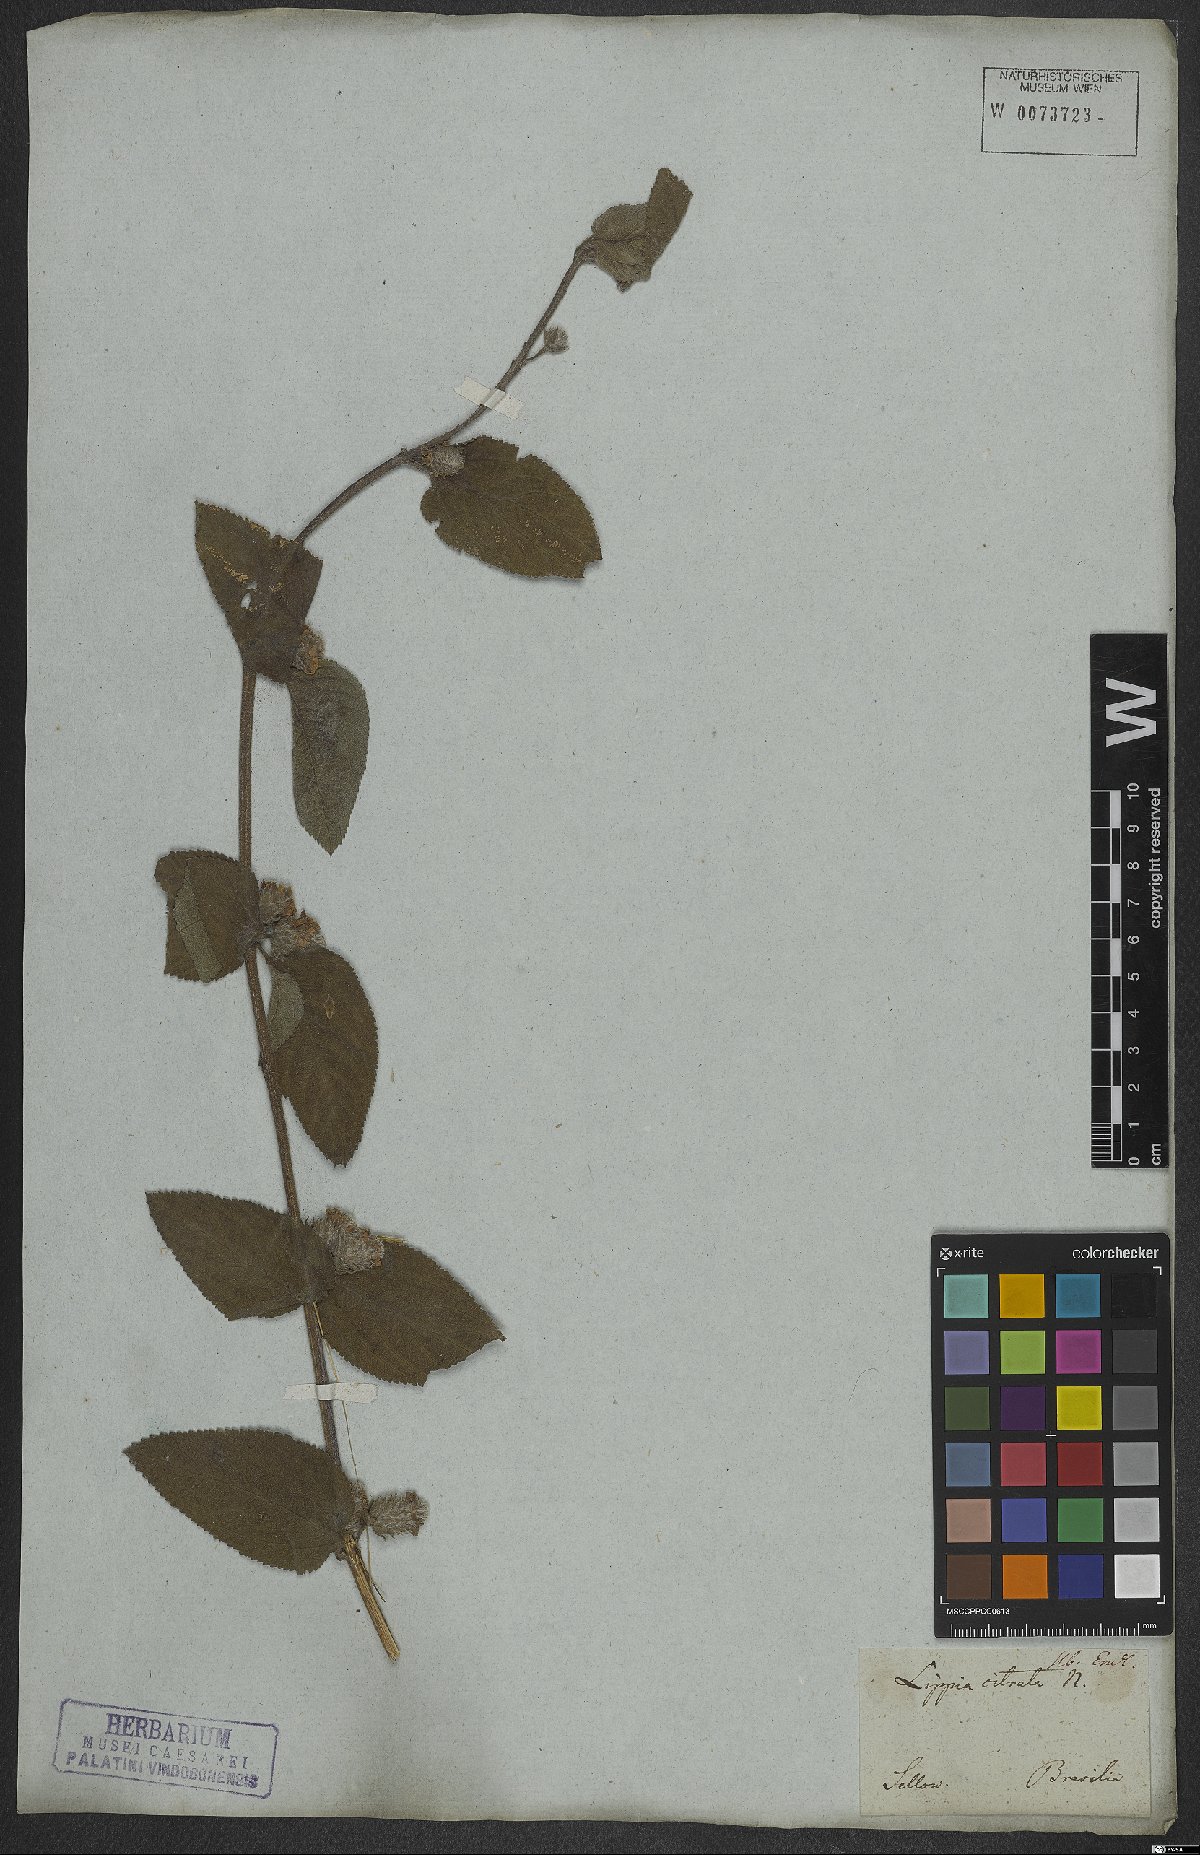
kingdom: Plantae
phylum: Tracheophyta
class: Magnoliopsida
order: Lamiales
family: Verbenaceae
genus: Lippia
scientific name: Lippia alba
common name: Bushy matgrass
